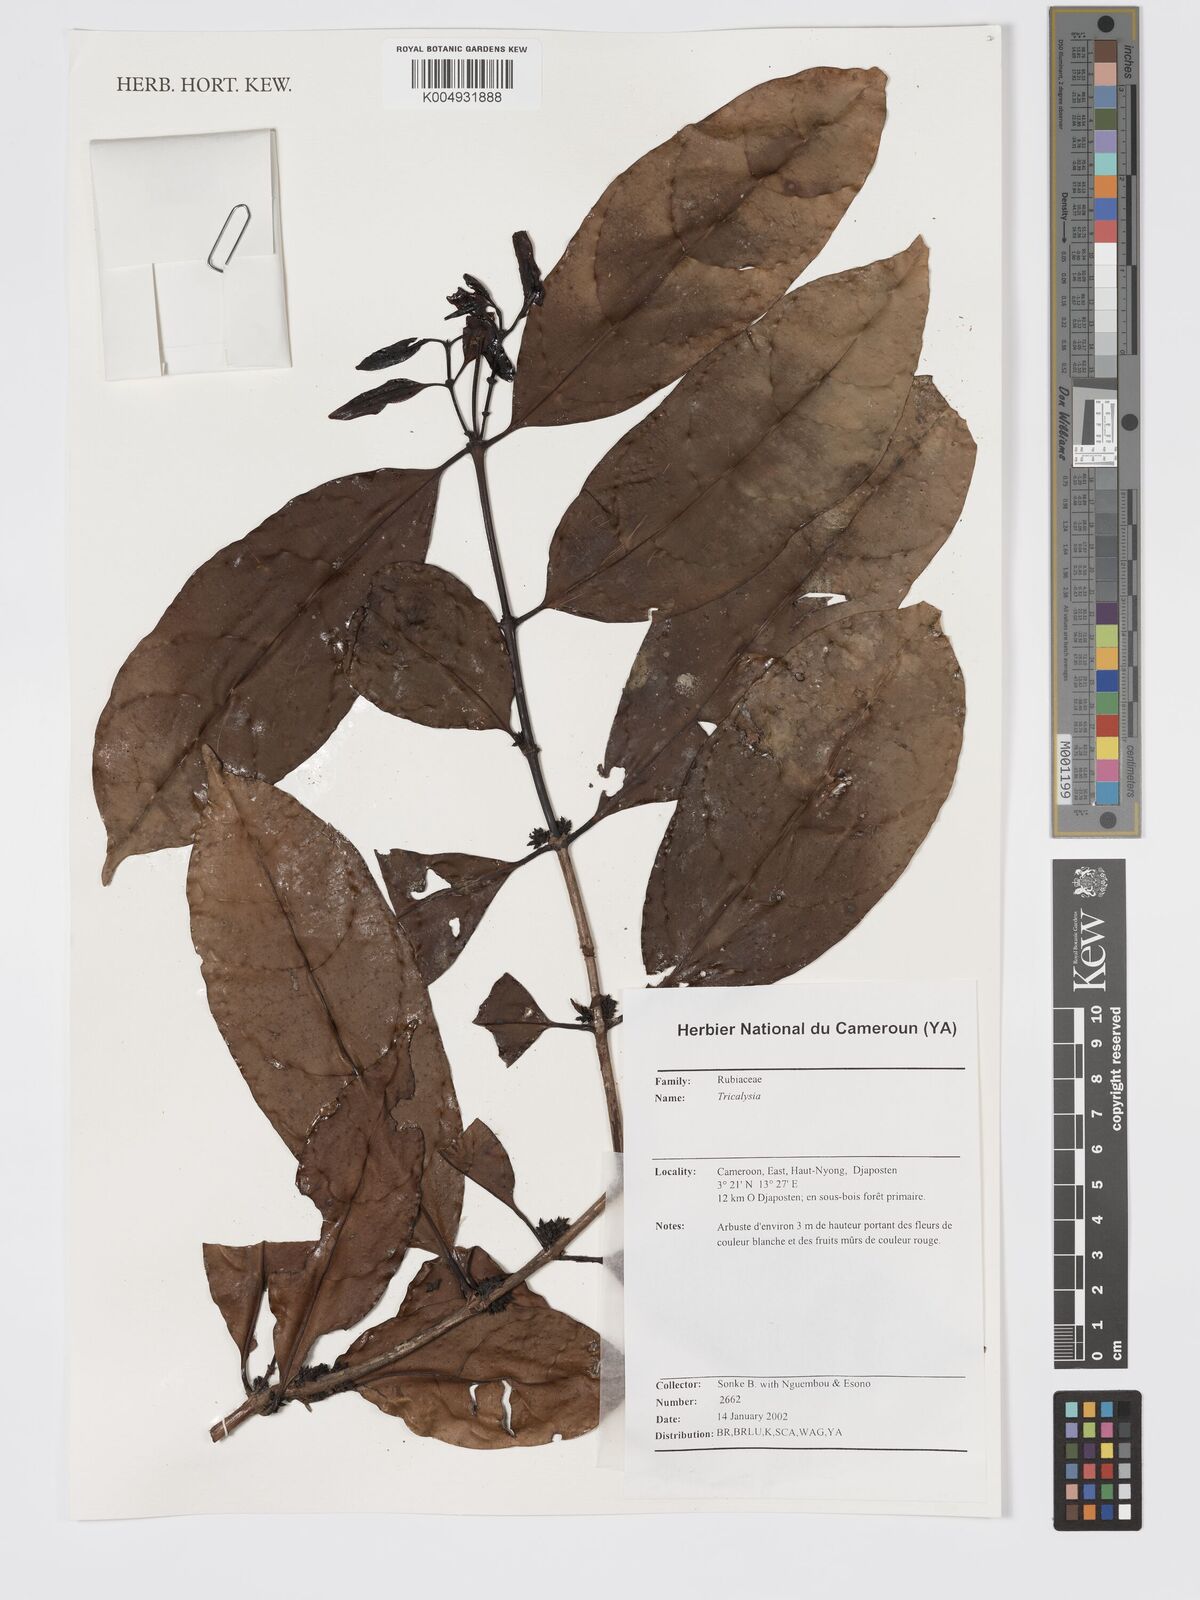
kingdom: Plantae
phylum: Tracheophyta
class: Magnoliopsida
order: Gentianales
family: Rubiaceae
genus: Tricalysia
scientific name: Tricalysia
